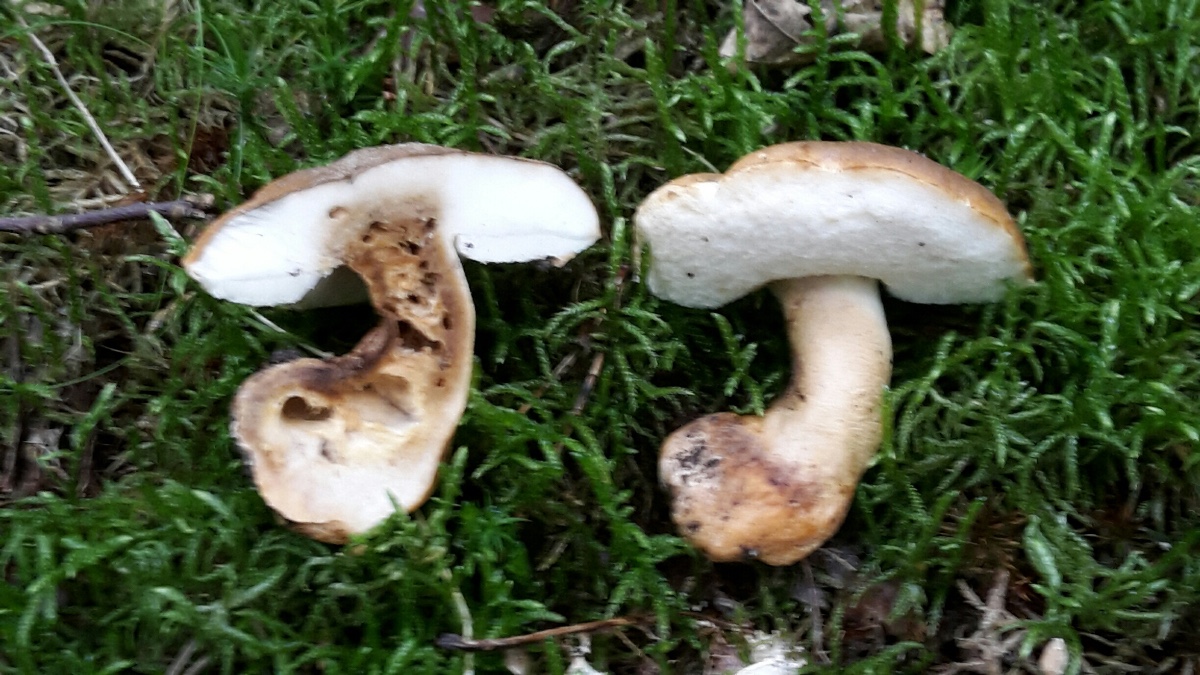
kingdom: Fungi
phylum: Basidiomycota
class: Agaricomycetes
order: Boletales
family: Gyroporaceae
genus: Gyroporus
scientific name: Gyroporus castaneus
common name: kastanie-kammerrørhat
